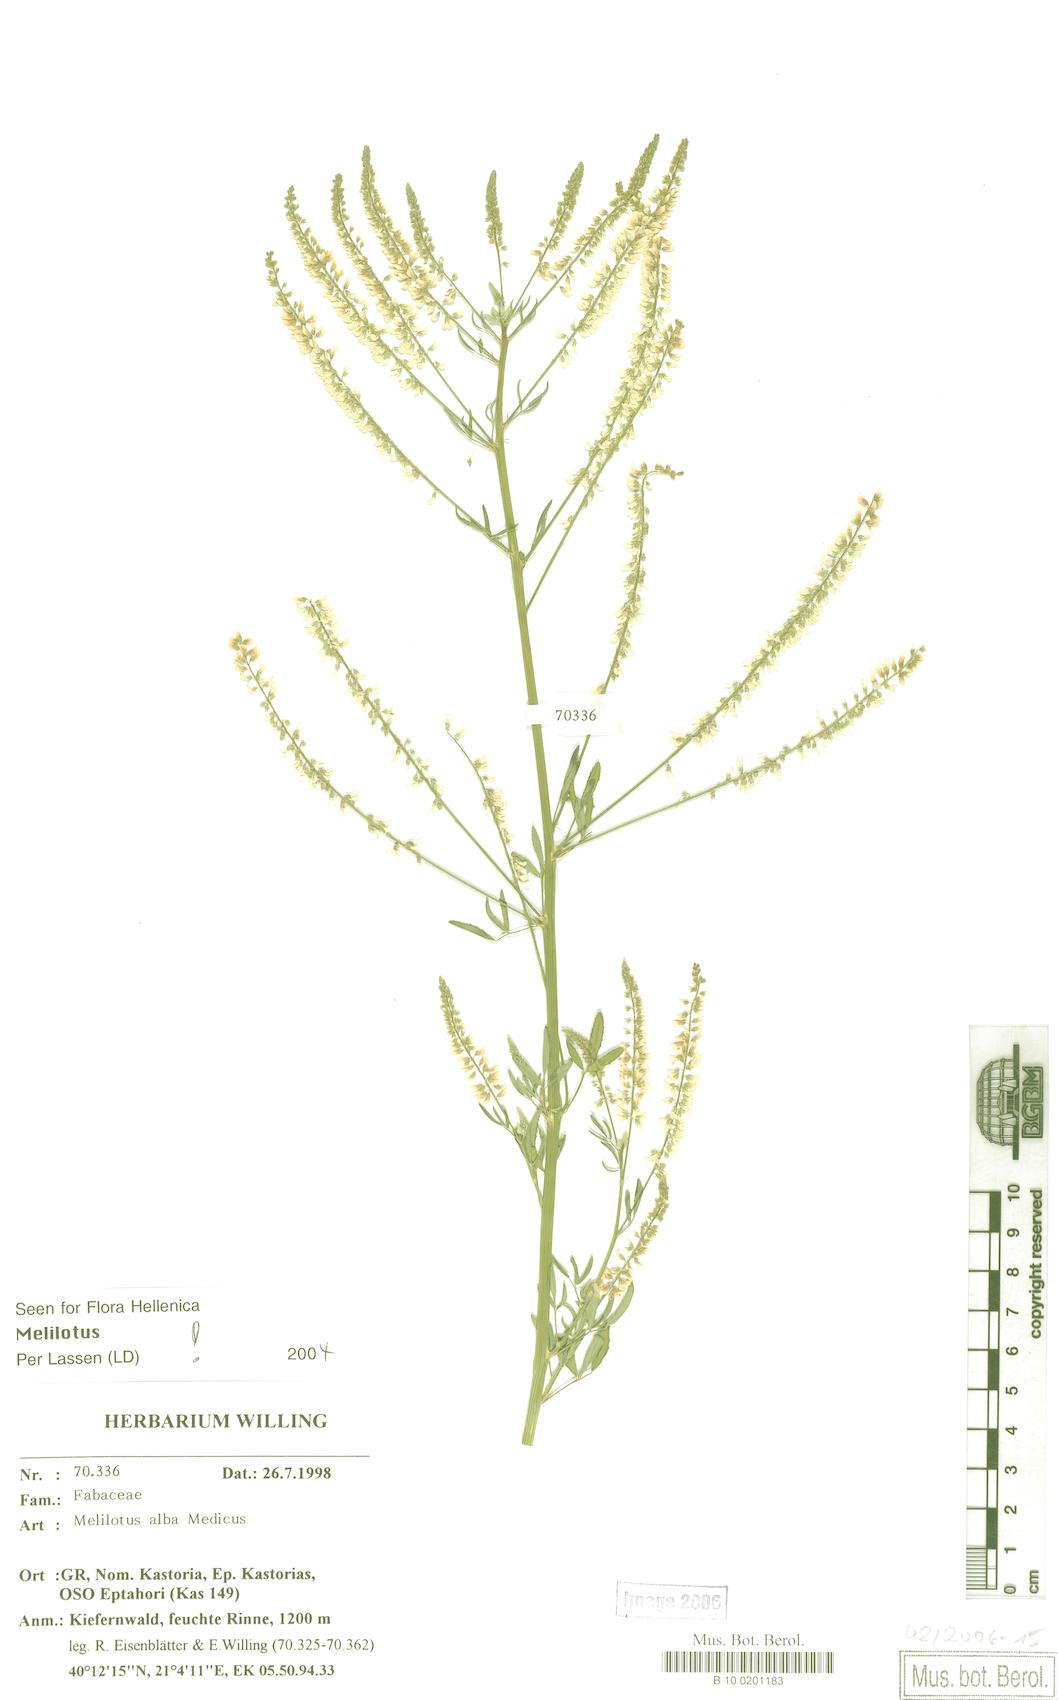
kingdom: Plantae
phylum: Tracheophyta
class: Magnoliopsida
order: Fabales
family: Fabaceae
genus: Melilotus
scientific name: Melilotus albus
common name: White melilot
